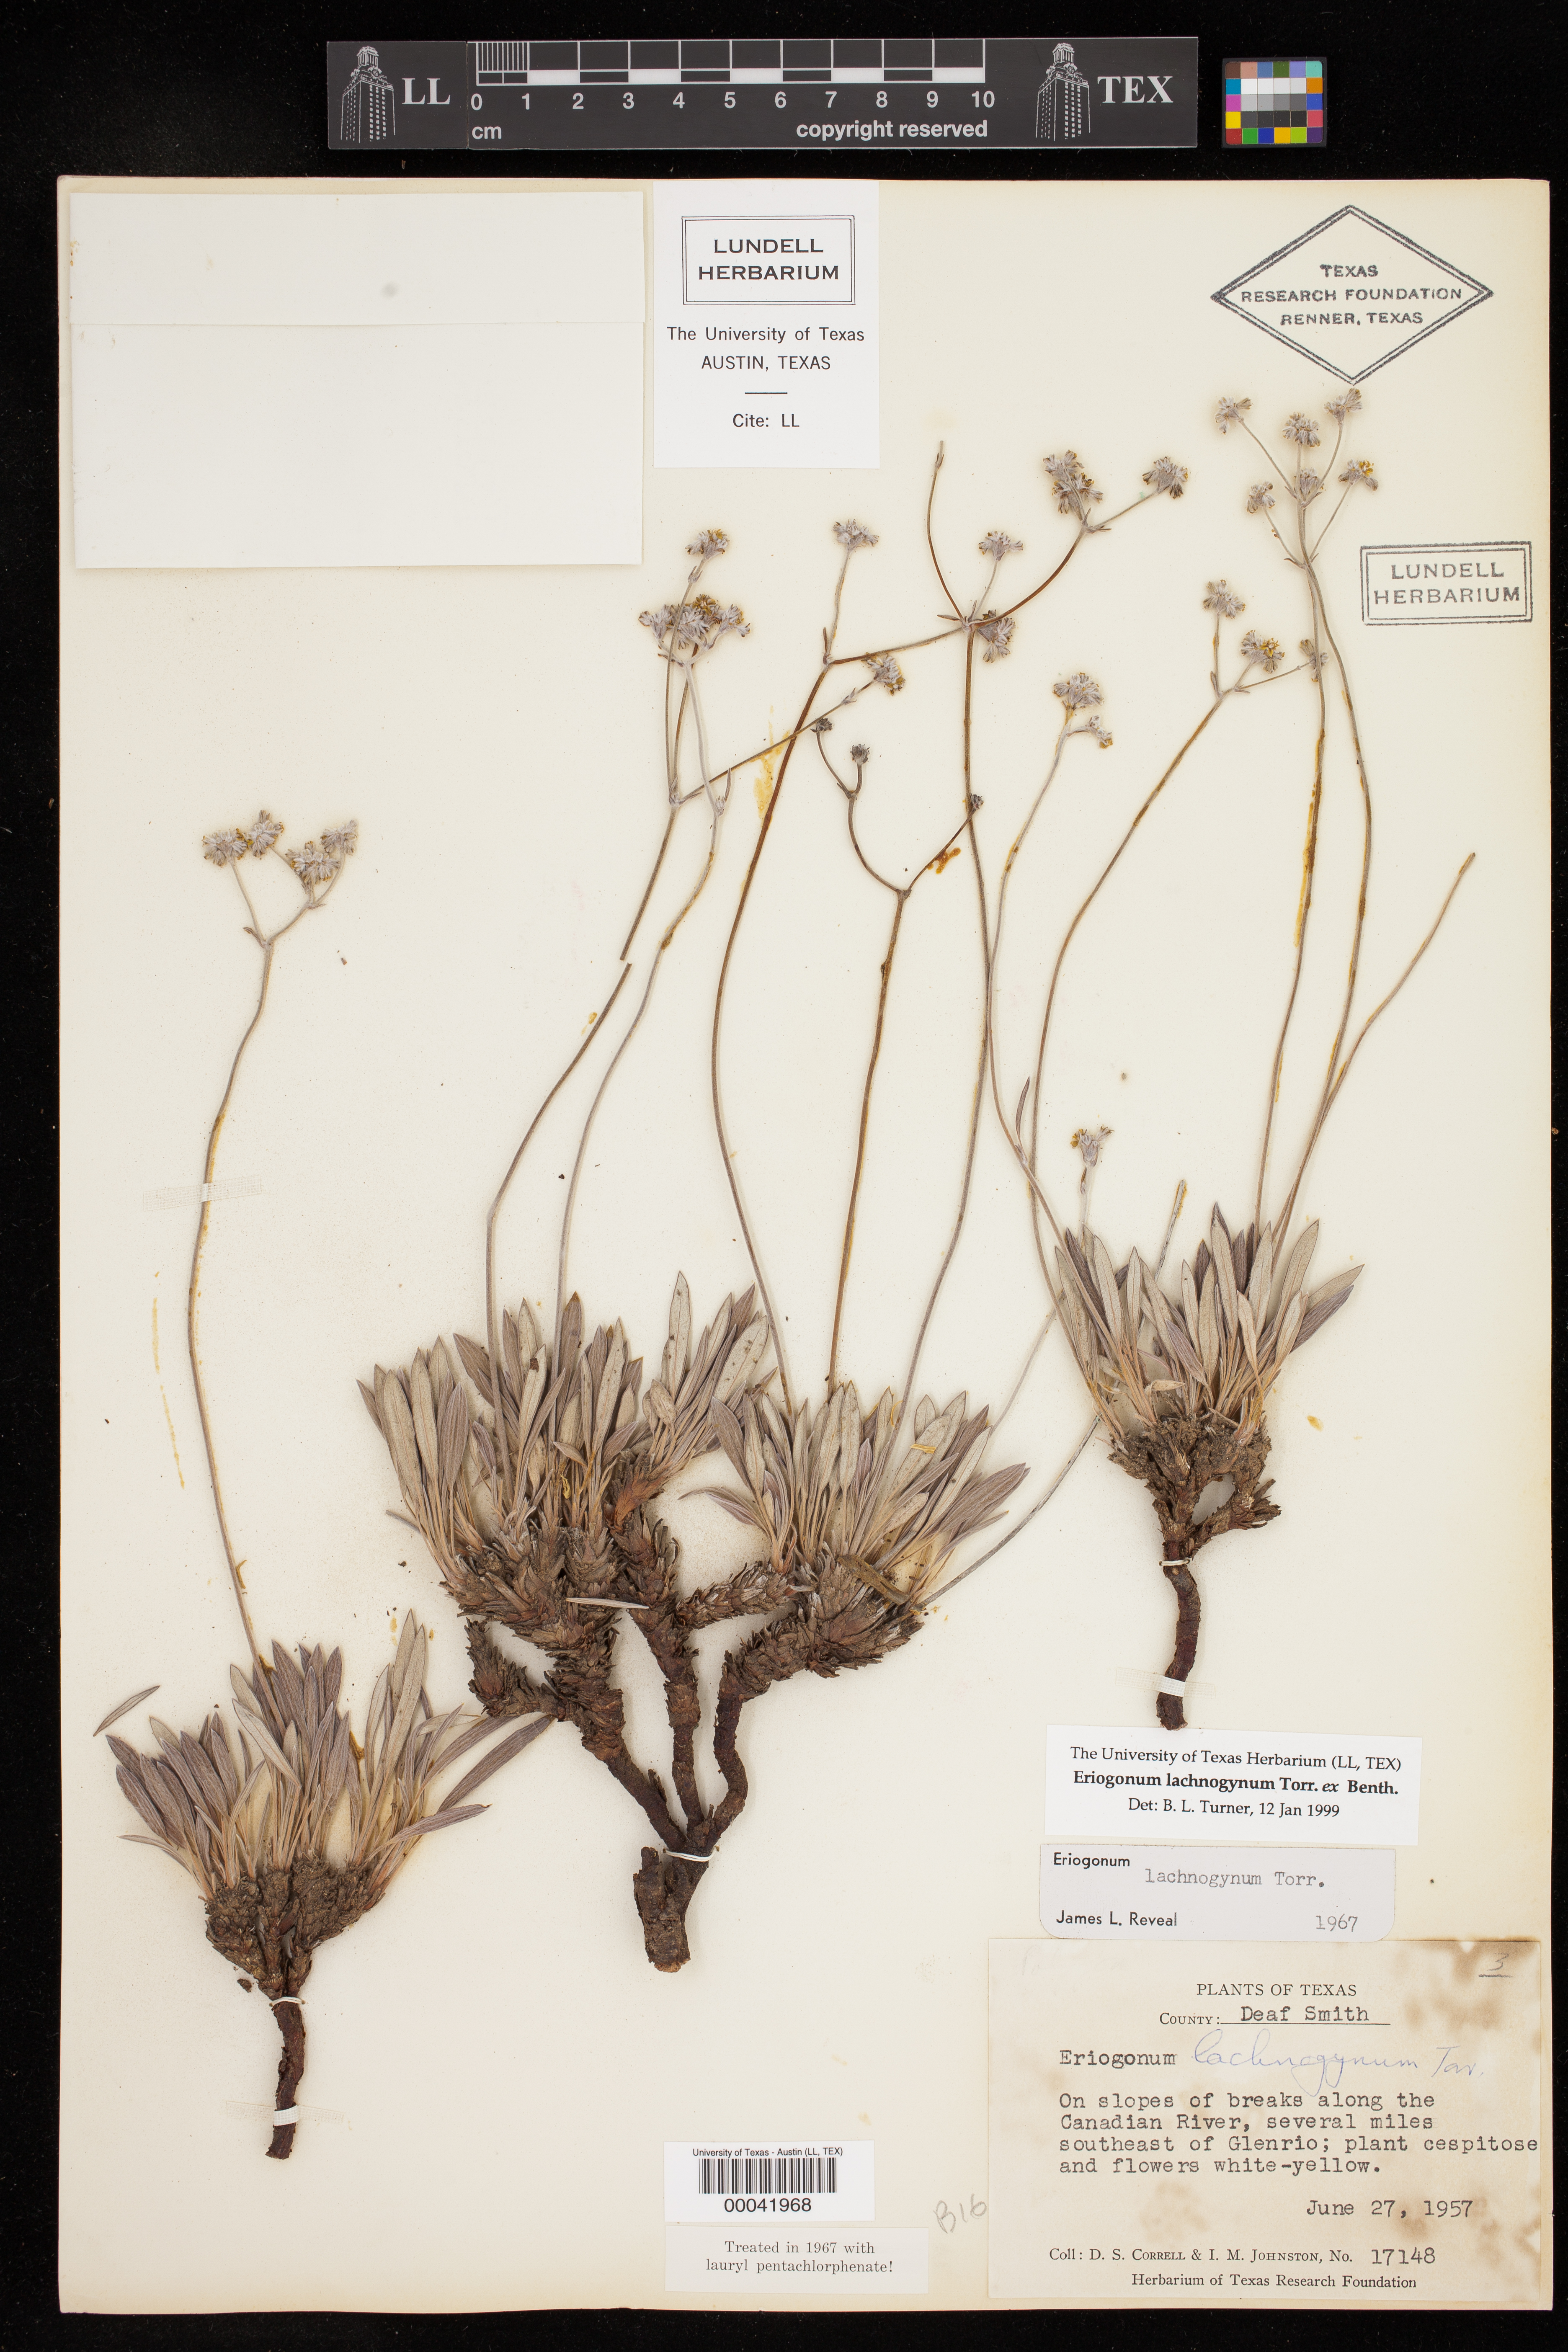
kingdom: Plantae
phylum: Tracheophyta
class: Magnoliopsida
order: Caryophyllales
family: Polygonaceae
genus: Eriogonum
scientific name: Eriogonum lachnogynum
